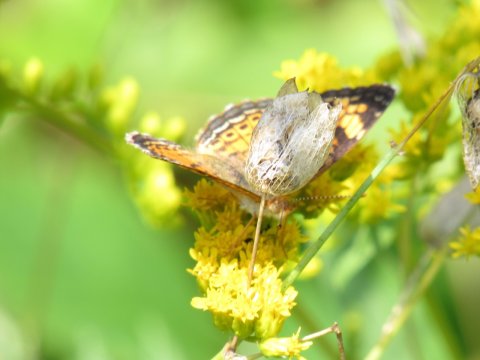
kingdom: Animalia
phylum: Arthropoda
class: Insecta
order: Lepidoptera
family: Nymphalidae
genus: Phyciodes
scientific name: Phyciodes
